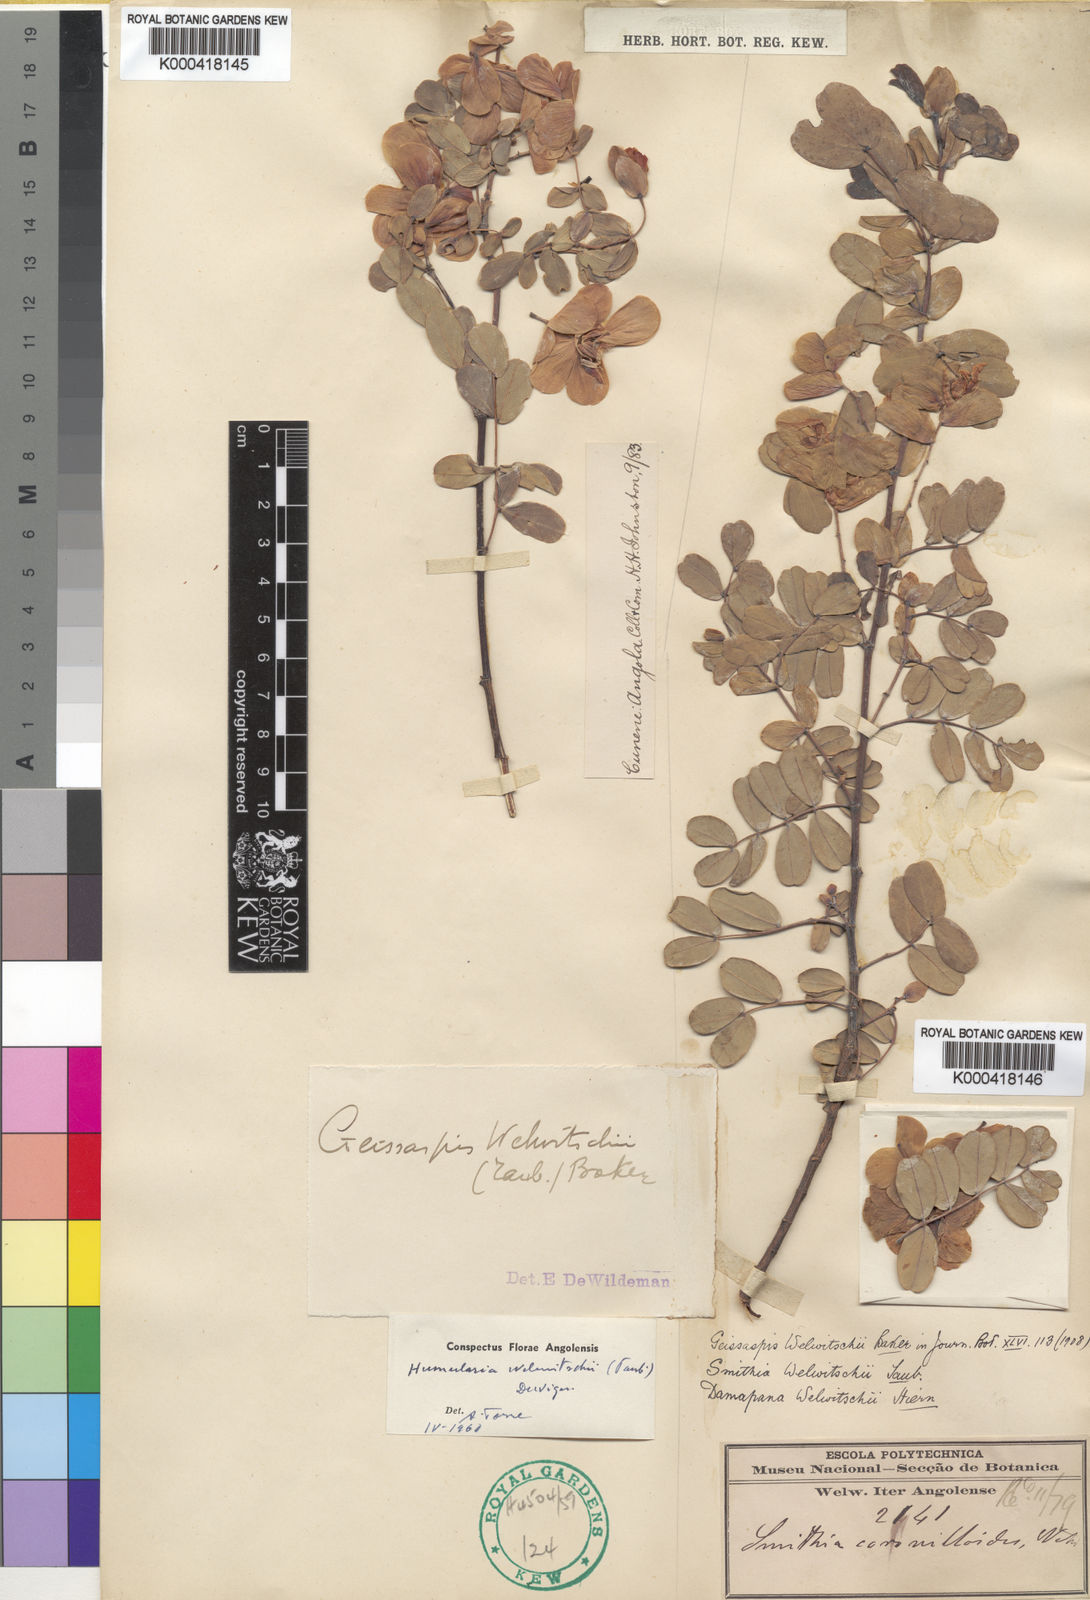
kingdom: Plantae
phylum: Tracheophyta
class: Magnoliopsida
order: Fabales
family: Fabaceae
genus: Humularia
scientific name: Humularia welwitschii
